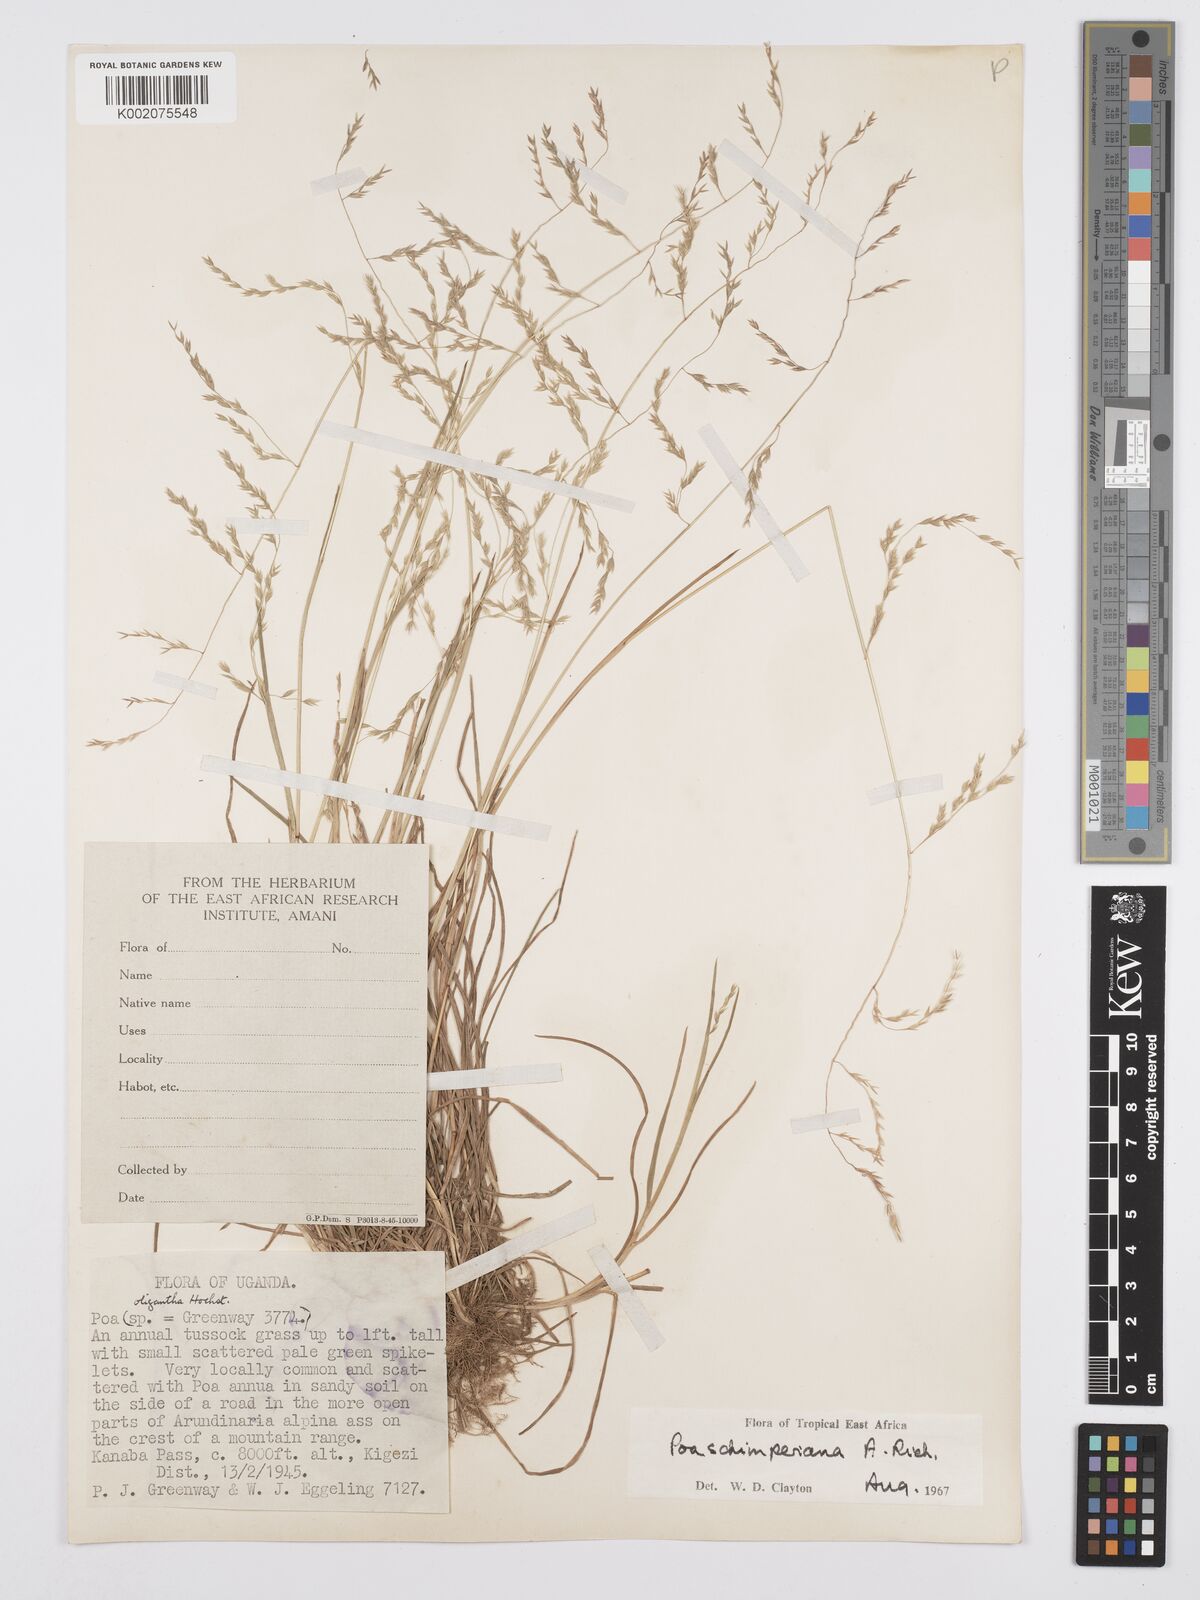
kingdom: Plantae
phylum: Tracheophyta
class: Liliopsida
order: Poales
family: Poaceae
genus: Poa
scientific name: Poa schimperiana
